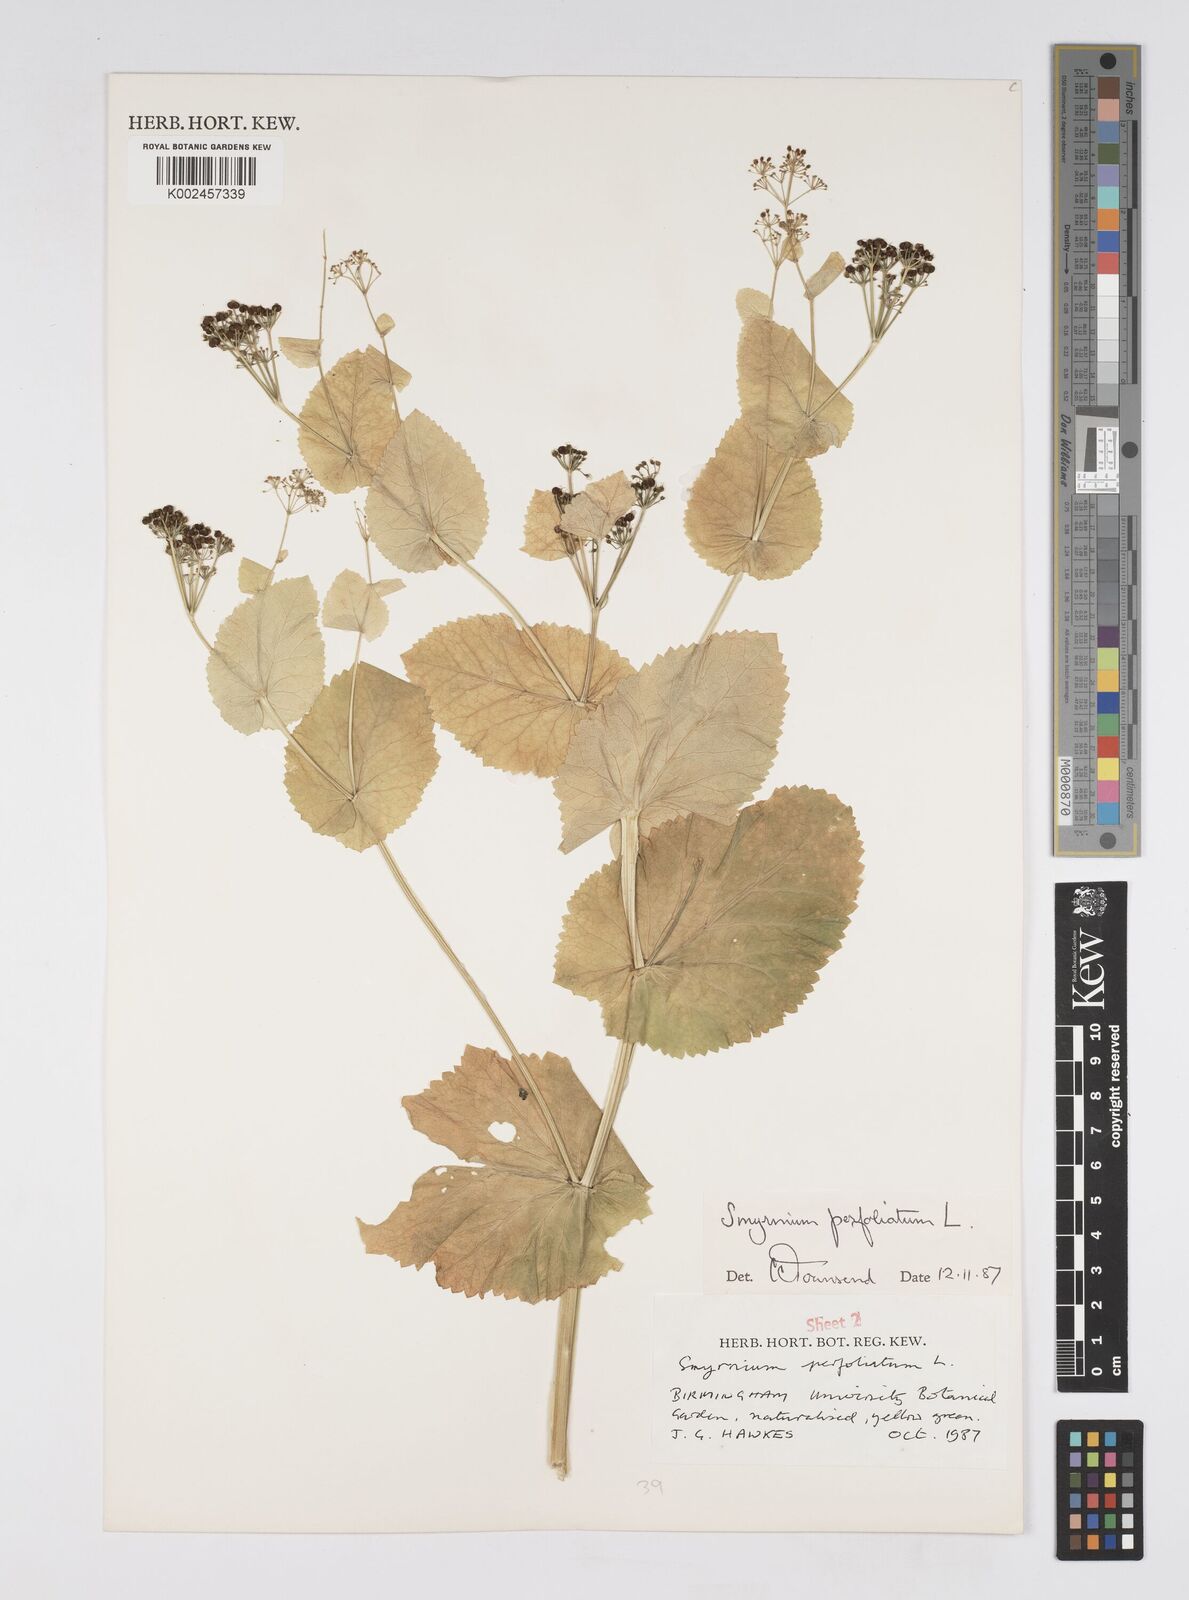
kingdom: Plantae
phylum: Tracheophyta
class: Magnoliopsida
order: Apiales
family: Apiaceae
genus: Smyrnium
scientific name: Smyrnium perfoliatum
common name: Perfoliate alexanders
